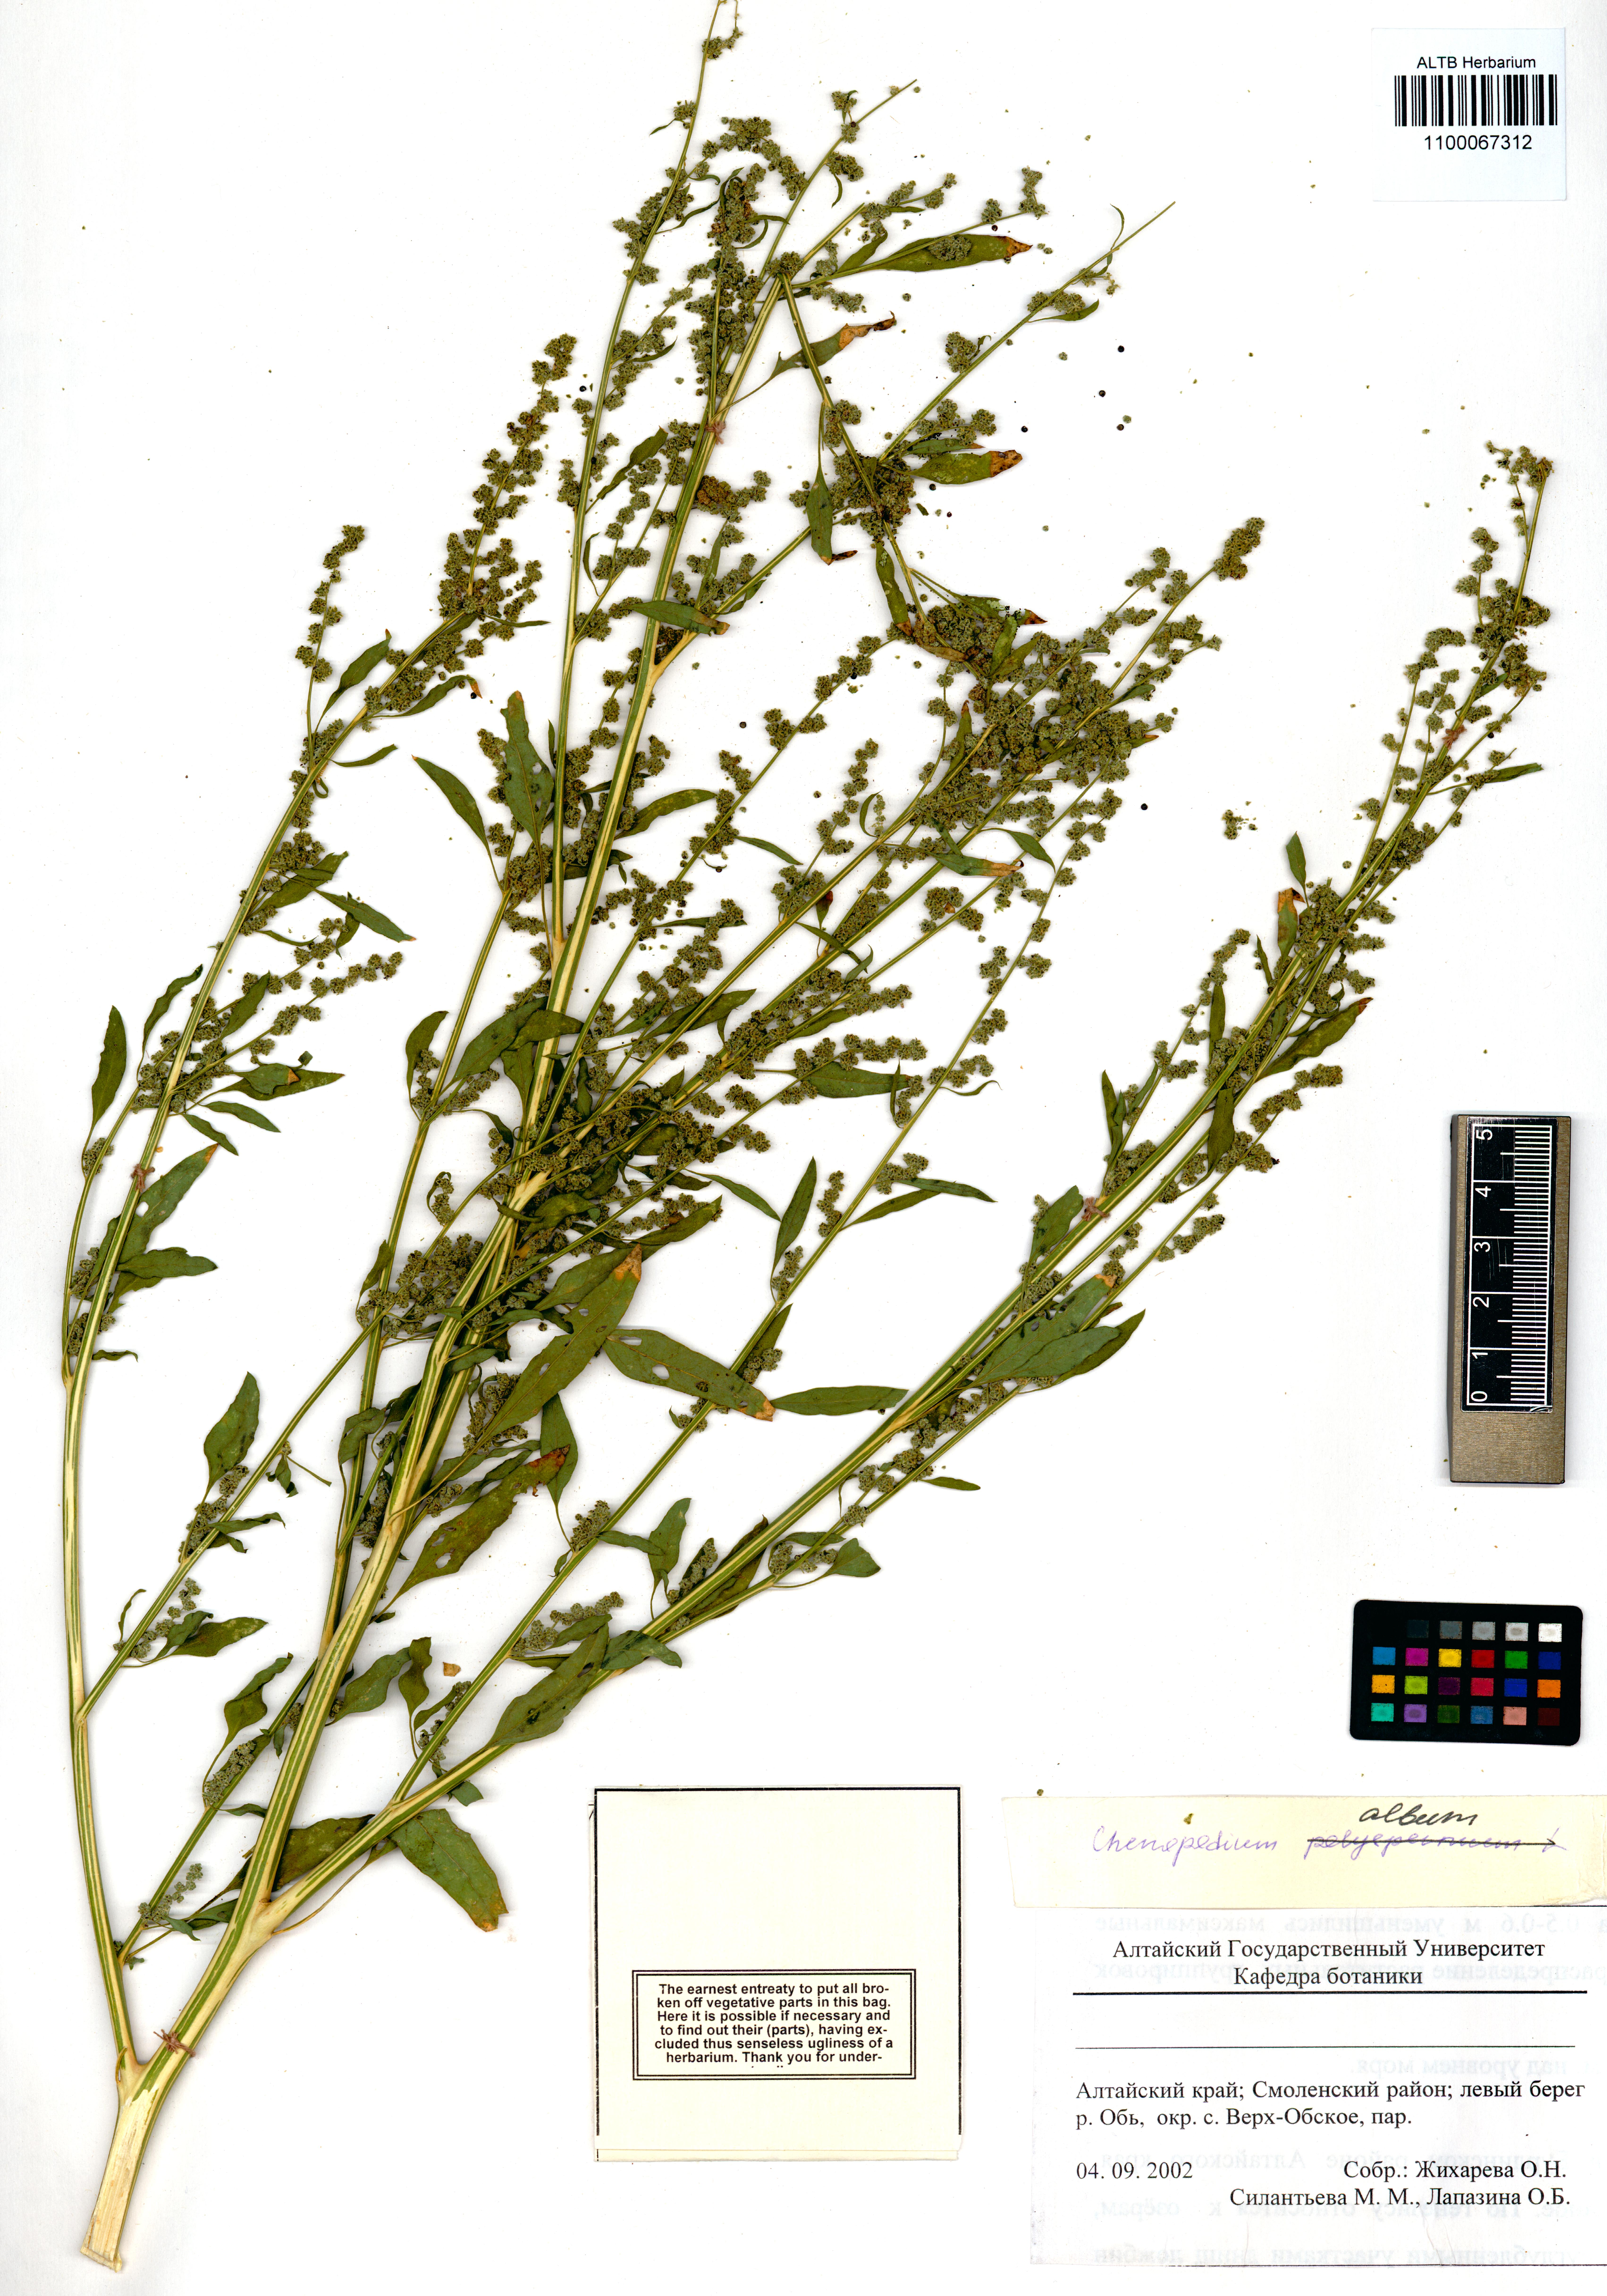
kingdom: Plantae
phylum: Tracheophyta
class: Magnoliopsida
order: Caryophyllales
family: Amaranthaceae
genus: Chenopodium
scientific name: Chenopodium album
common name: Fat-hen
